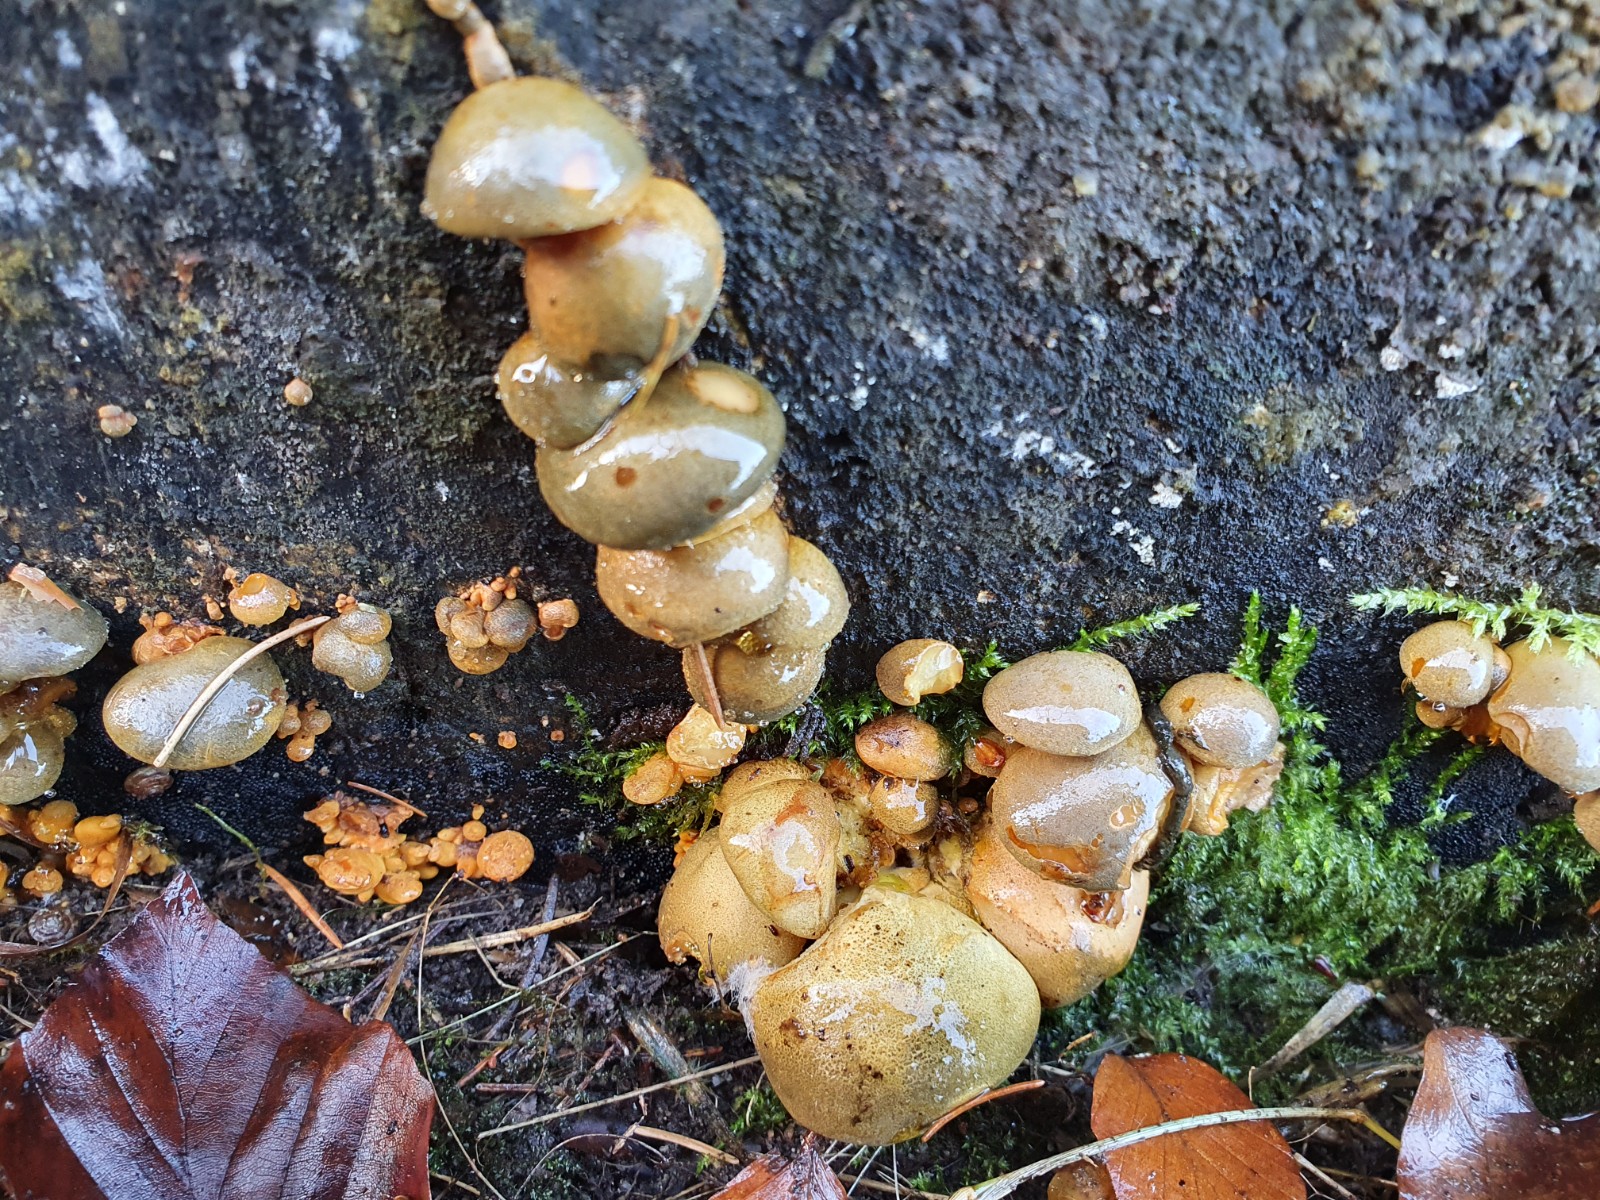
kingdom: Fungi
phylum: Basidiomycota
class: Agaricomycetes
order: Agaricales
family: Sarcomyxaceae
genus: Sarcomyxa
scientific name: Sarcomyxa serotina
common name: gummihat
